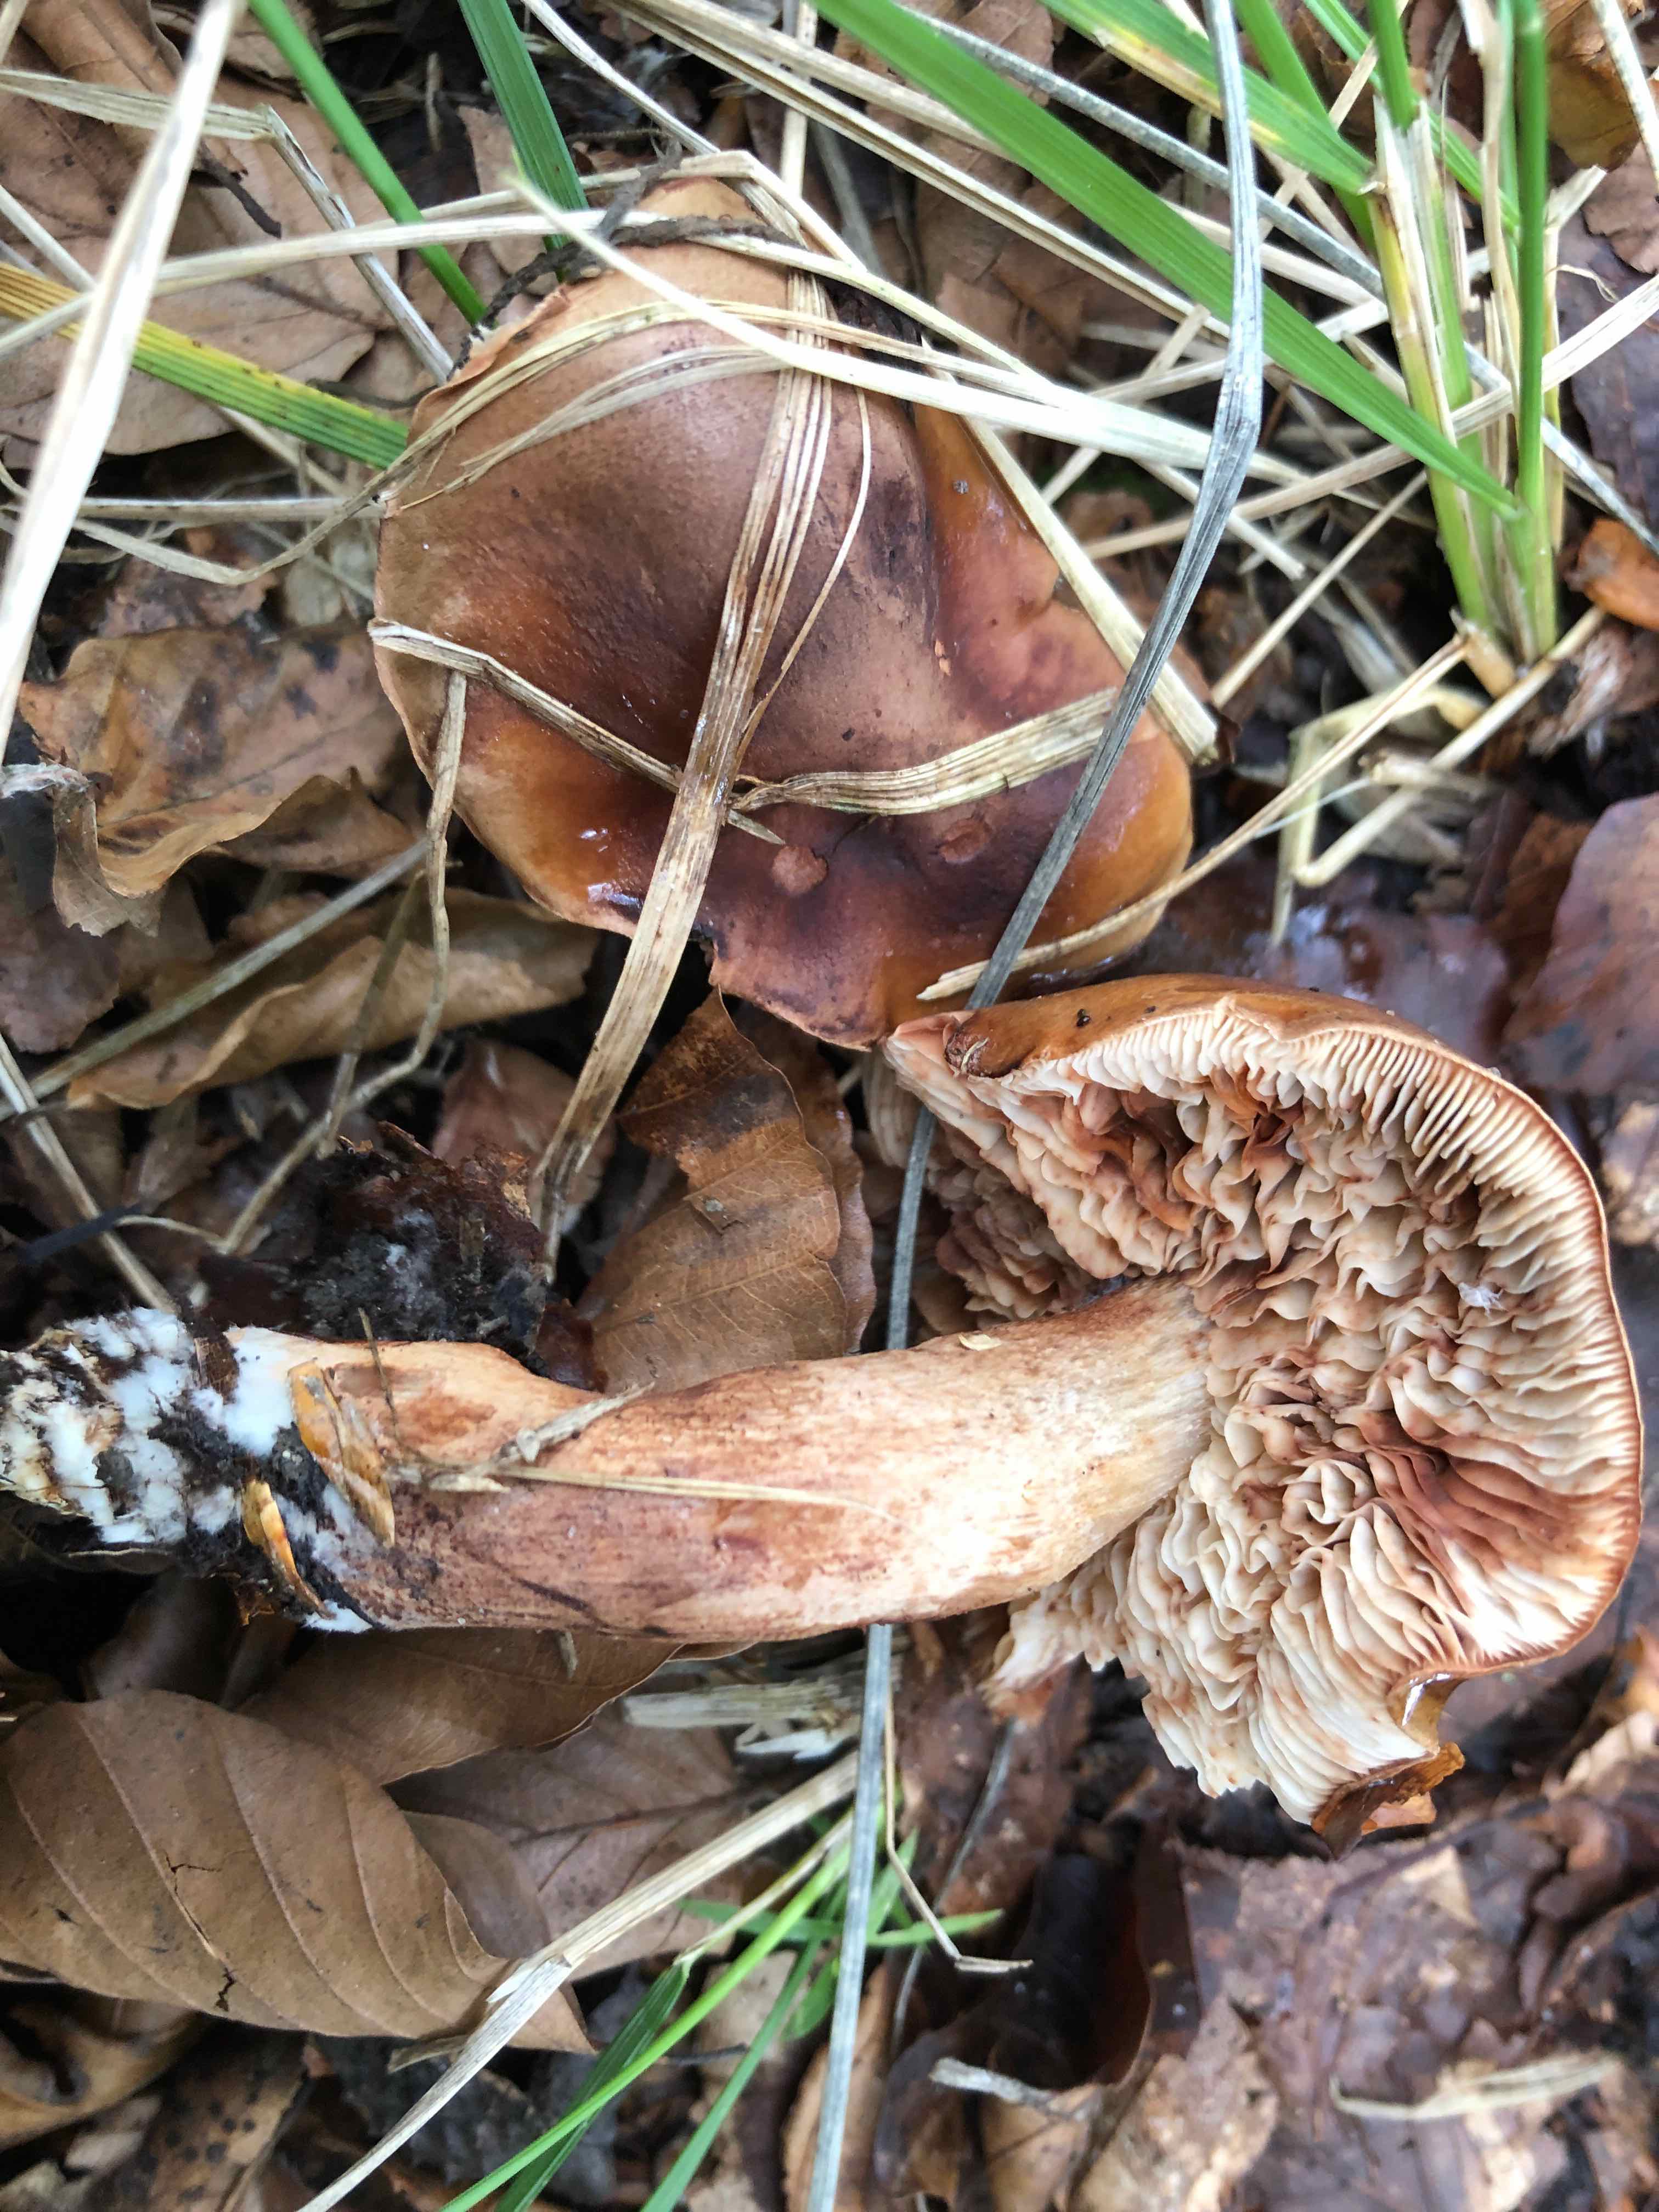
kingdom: Fungi
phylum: Basidiomycota
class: Agaricomycetes
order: Agaricales
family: Tricholomataceae
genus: Tricholoma
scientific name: Tricholoma ustale
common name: sveden ridderhat
